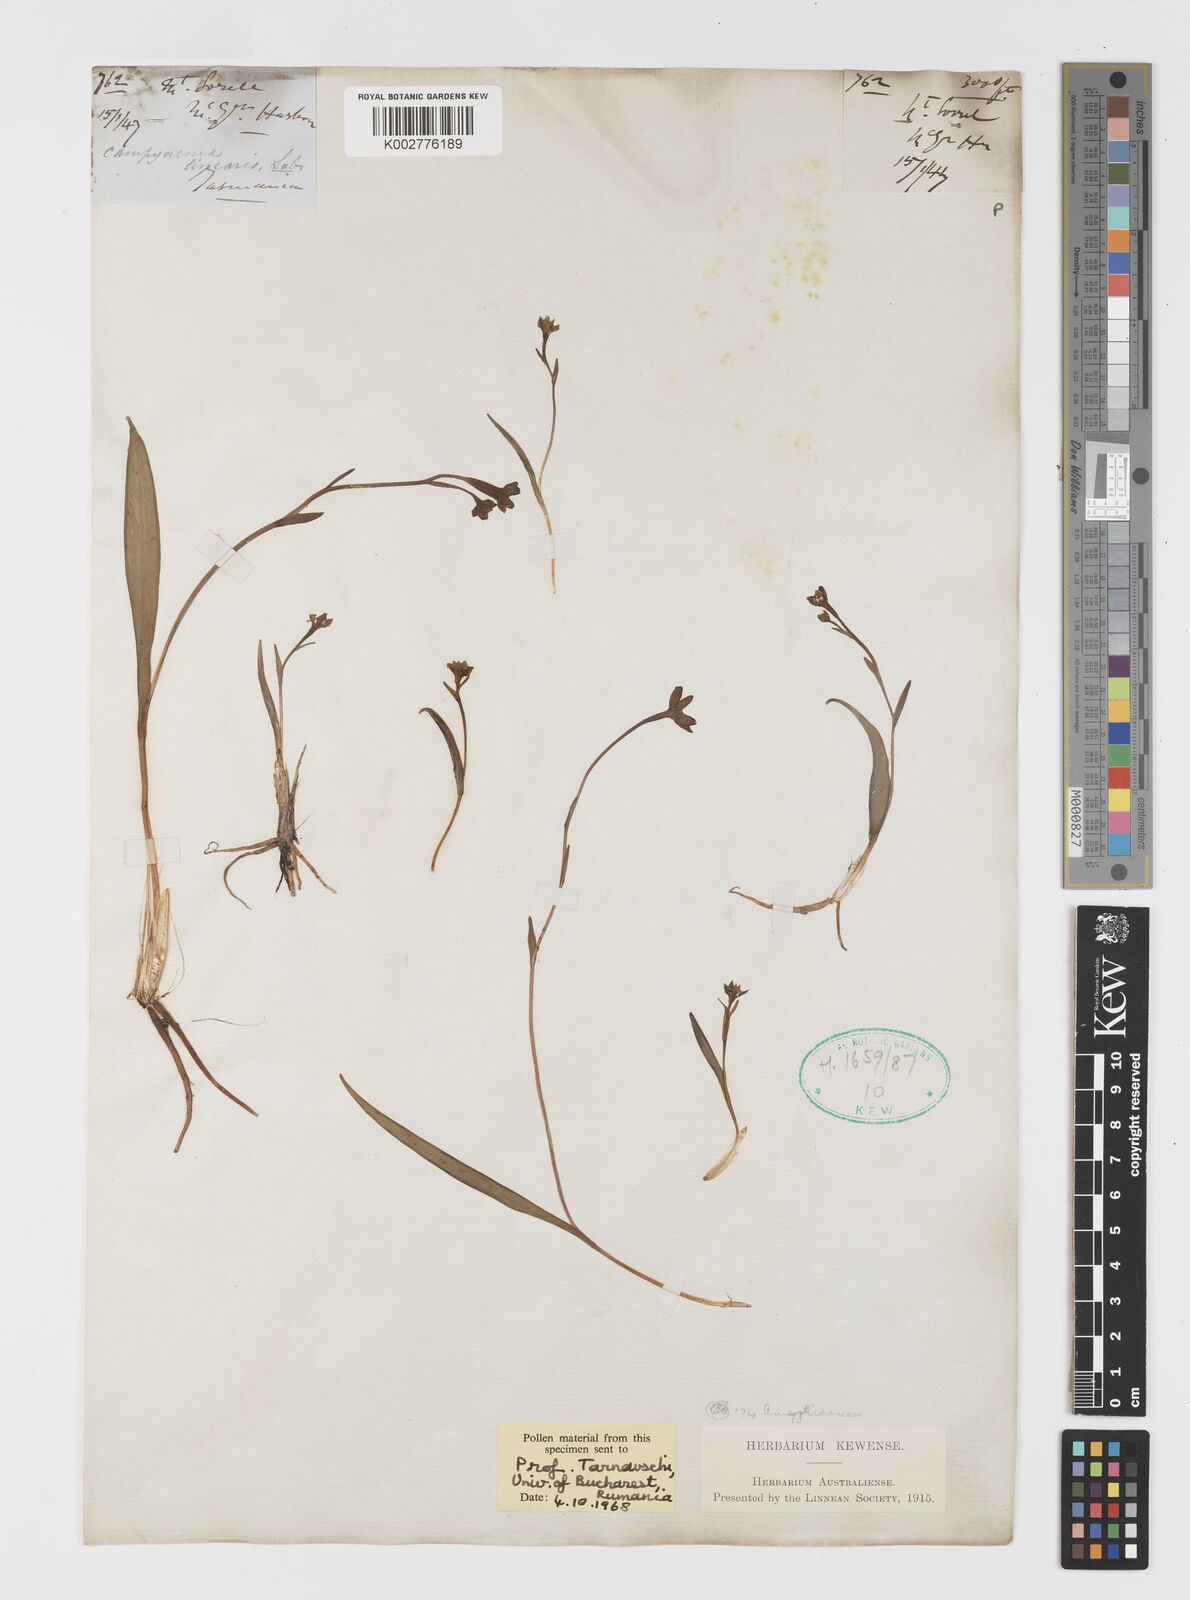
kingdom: Plantae
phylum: Tracheophyta
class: Liliopsida
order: Liliales
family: Campynemataceae
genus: Campynema
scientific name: Campynema lineare
